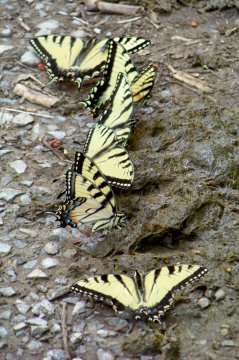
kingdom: Animalia
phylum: Arthropoda
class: Insecta
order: Lepidoptera
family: Papilionidae
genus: Pterourus
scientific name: Pterourus glaucus
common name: Eastern Tiger Swallowtail
